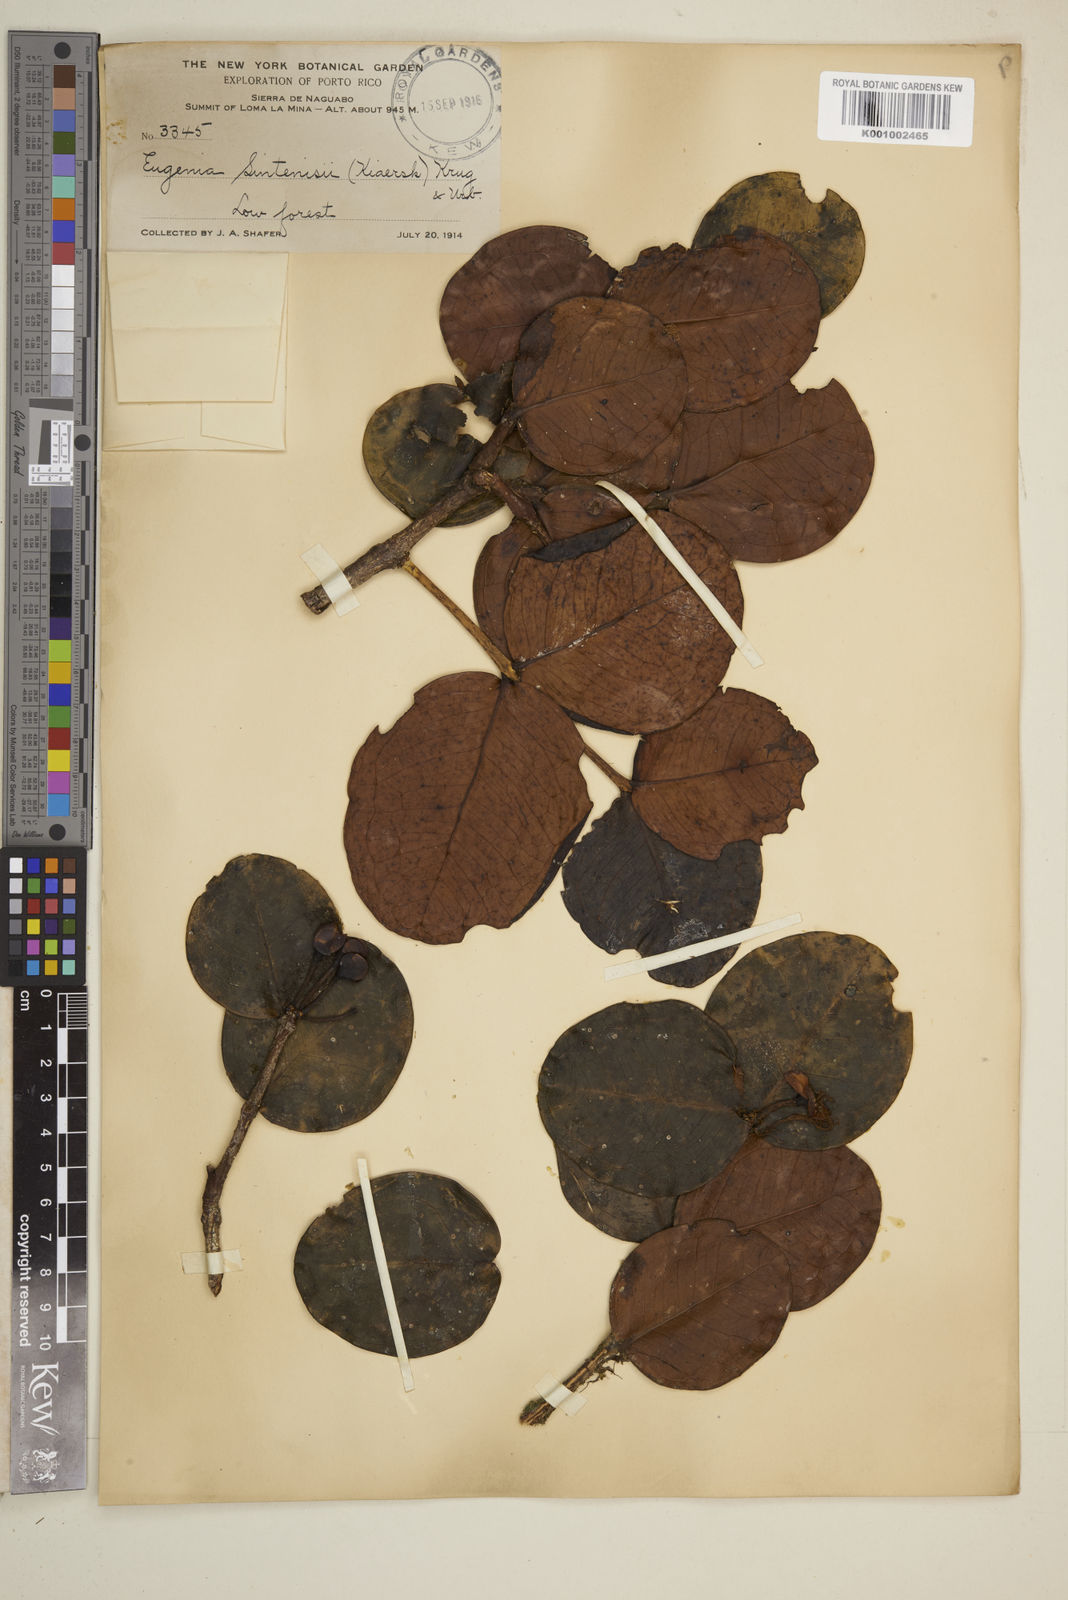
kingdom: Plantae
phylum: Tracheophyta
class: Magnoliopsida
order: Myrtales
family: Myrtaceae
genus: Eugenia
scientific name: Eugenia cordata
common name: Lathberry
